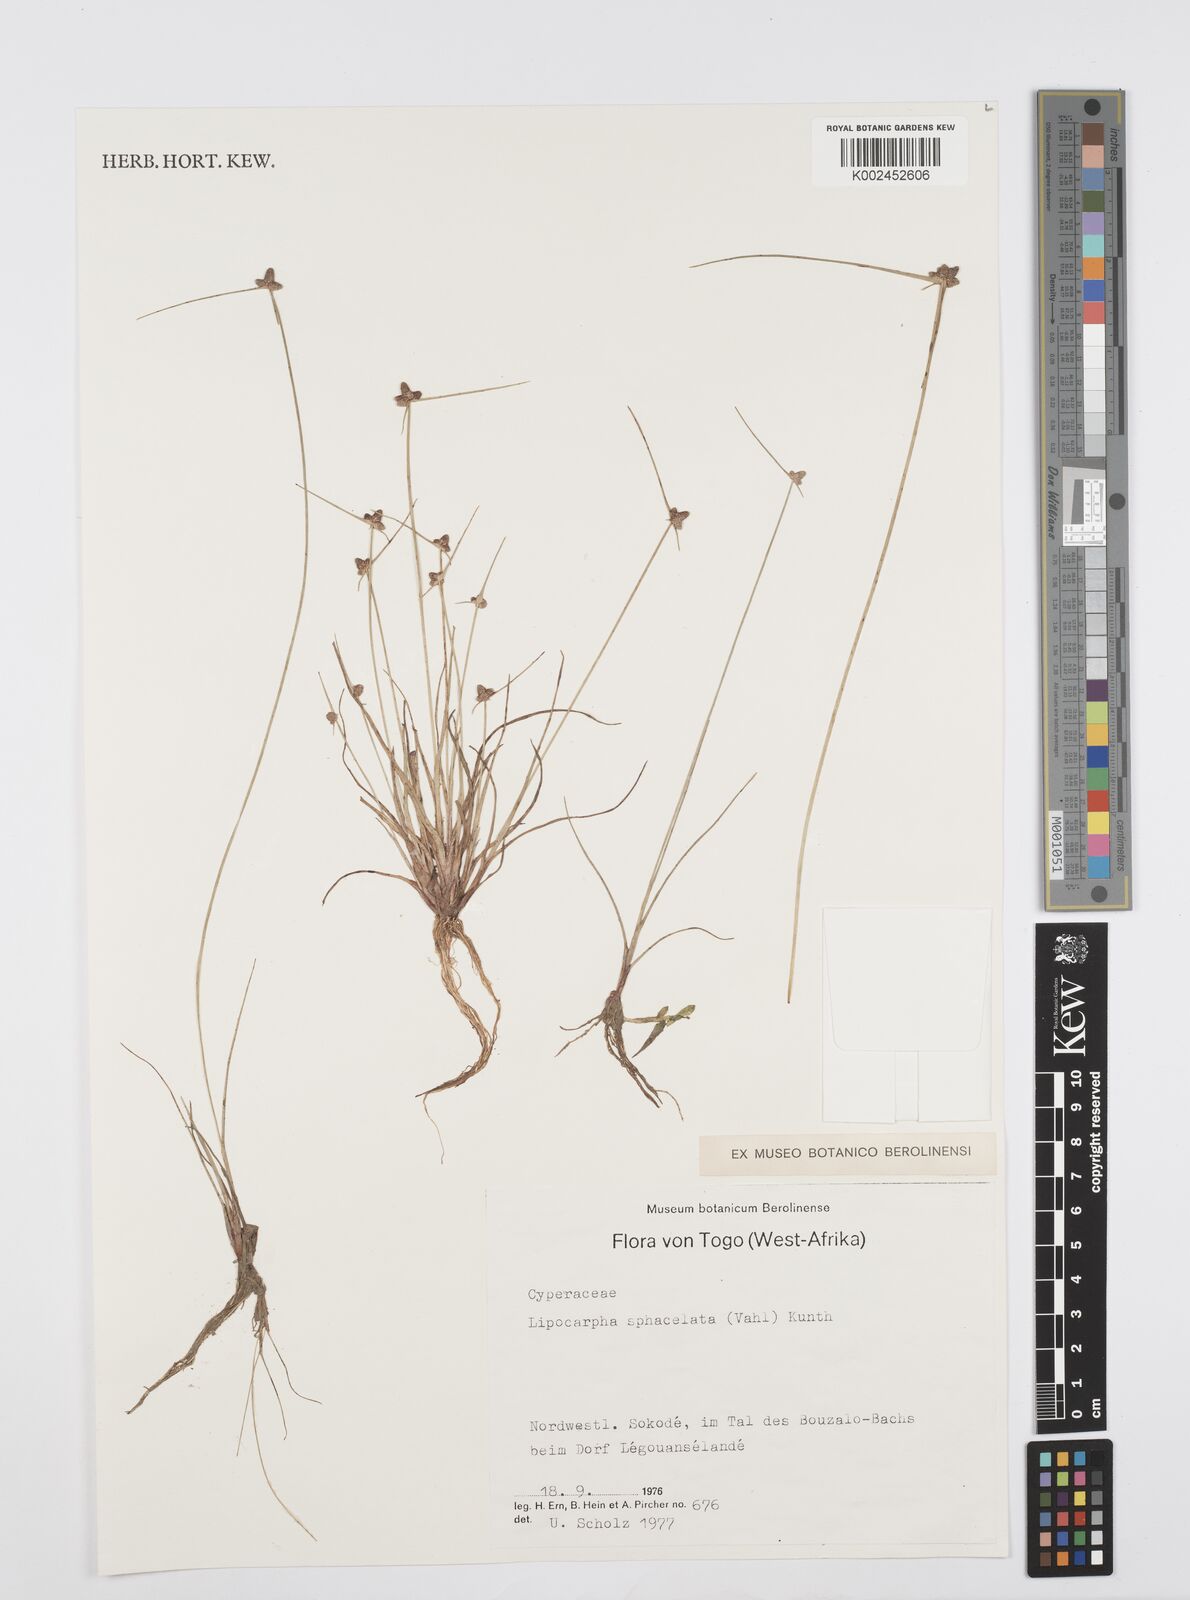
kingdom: Plantae
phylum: Tracheophyta
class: Liliopsida
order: Poales
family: Cyperaceae
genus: Cyperus
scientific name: Cyperus sphacelatus
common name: Roadside flatsedge
